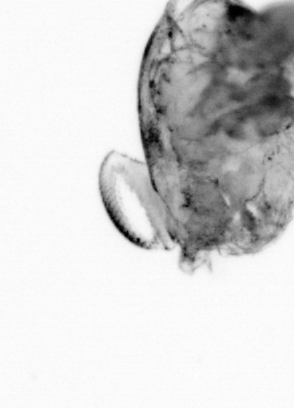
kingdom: Animalia
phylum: Arthropoda
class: Copepoda
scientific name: Copepoda
